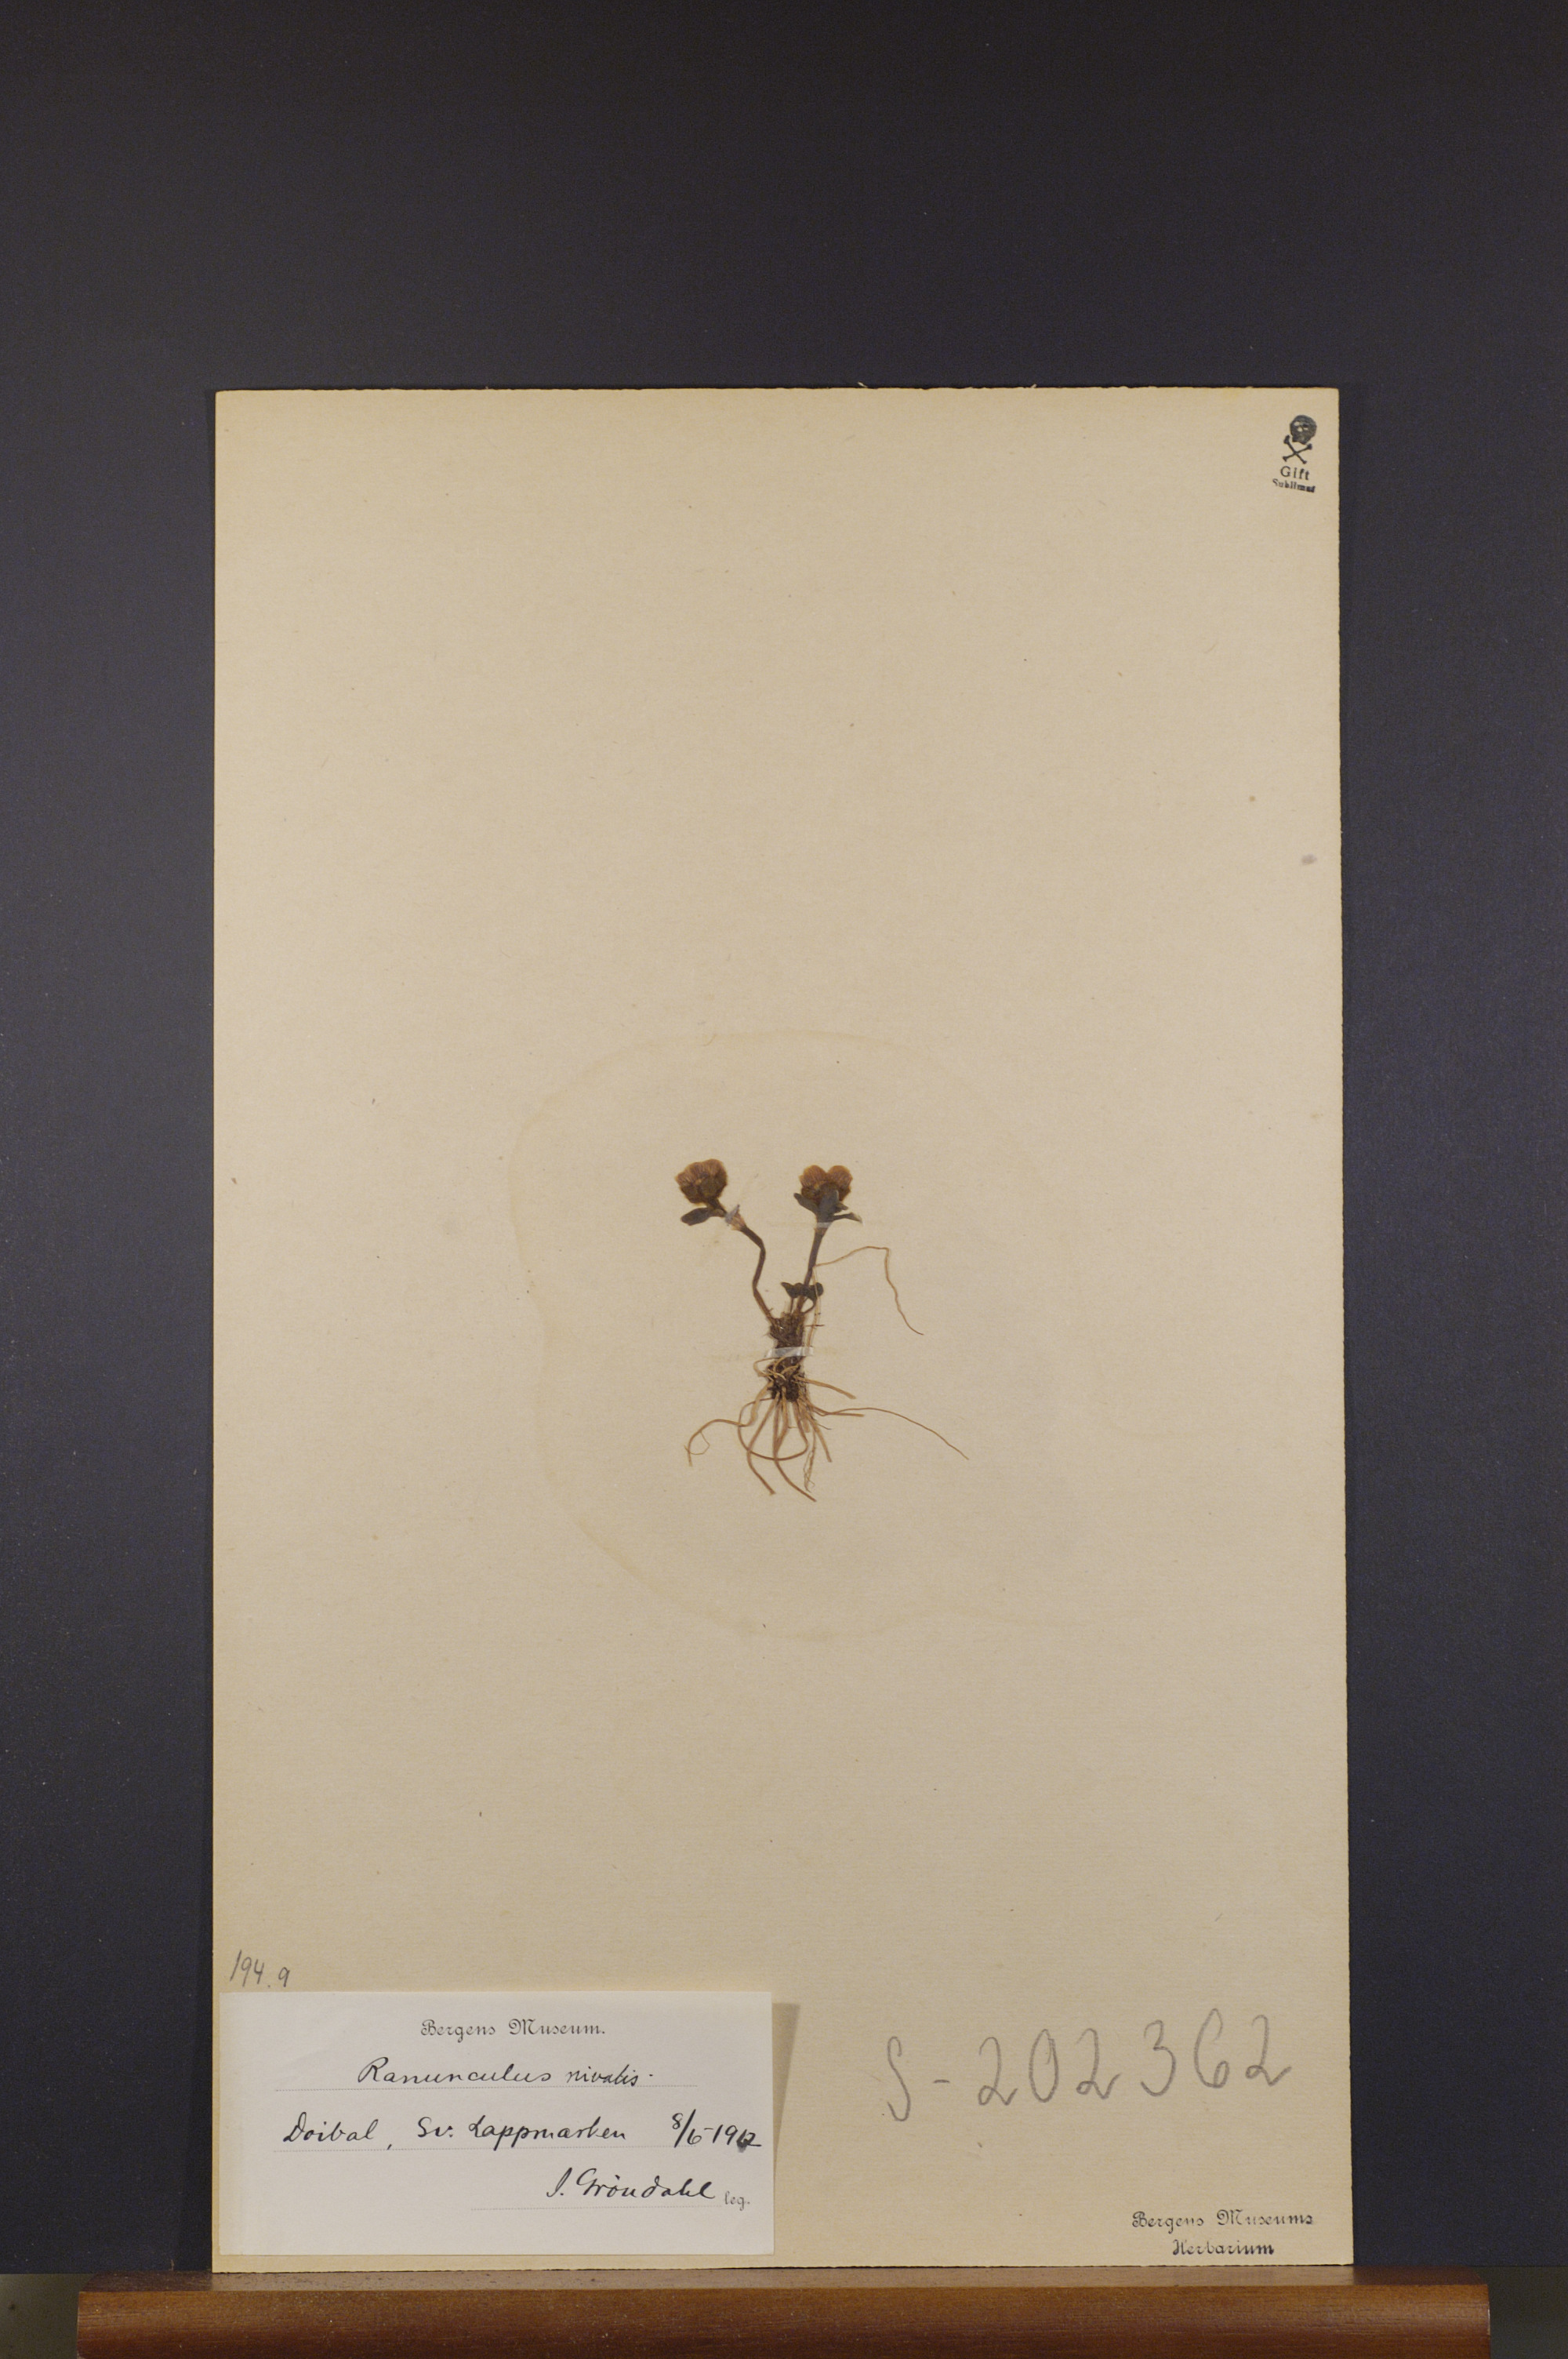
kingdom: Plantae
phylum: Tracheophyta
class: Magnoliopsida
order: Ranunculales
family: Ranunculaceae
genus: Ranunculus
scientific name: Ranunculus nivalis
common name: Snow buttercup
